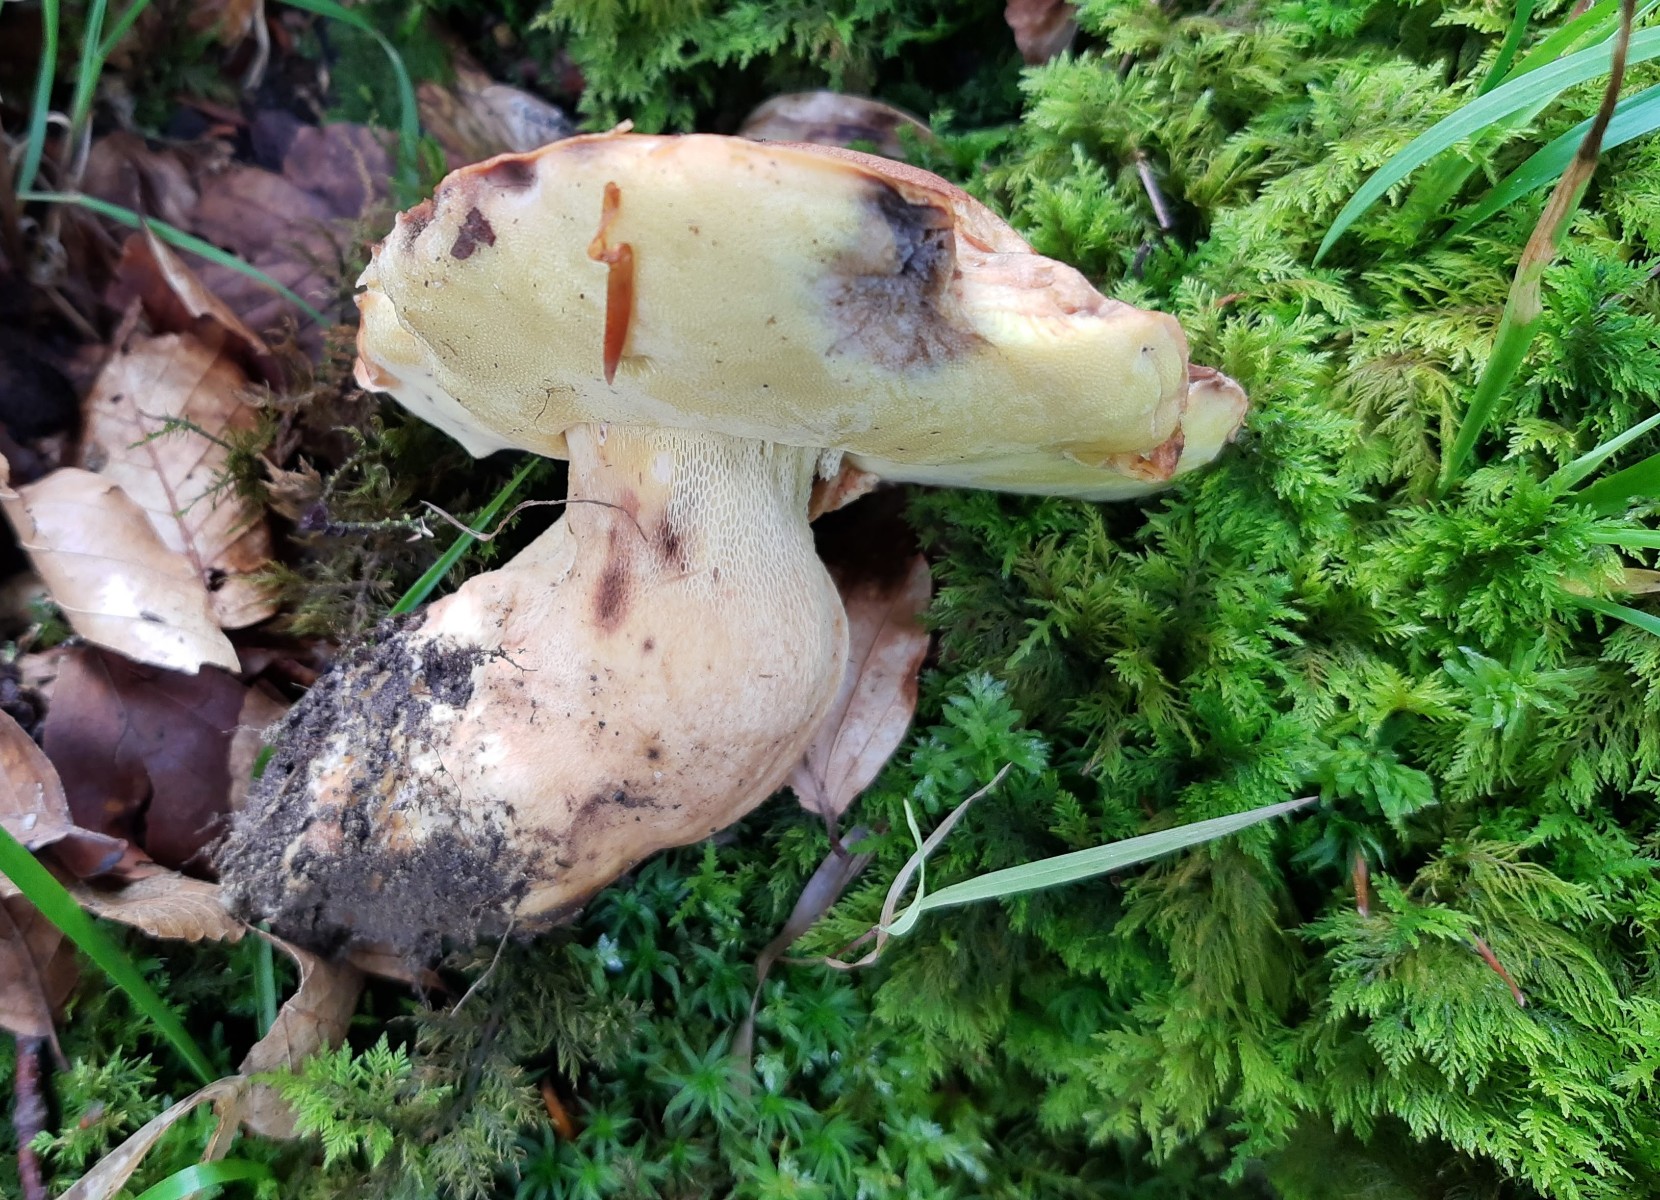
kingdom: Fungi
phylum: Basidiomycota
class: Agaricomycetes
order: Boletales
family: Boletaceae
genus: Butyriboletus
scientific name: Butyriboletus appendiculatus
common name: tenstokket rørhat
